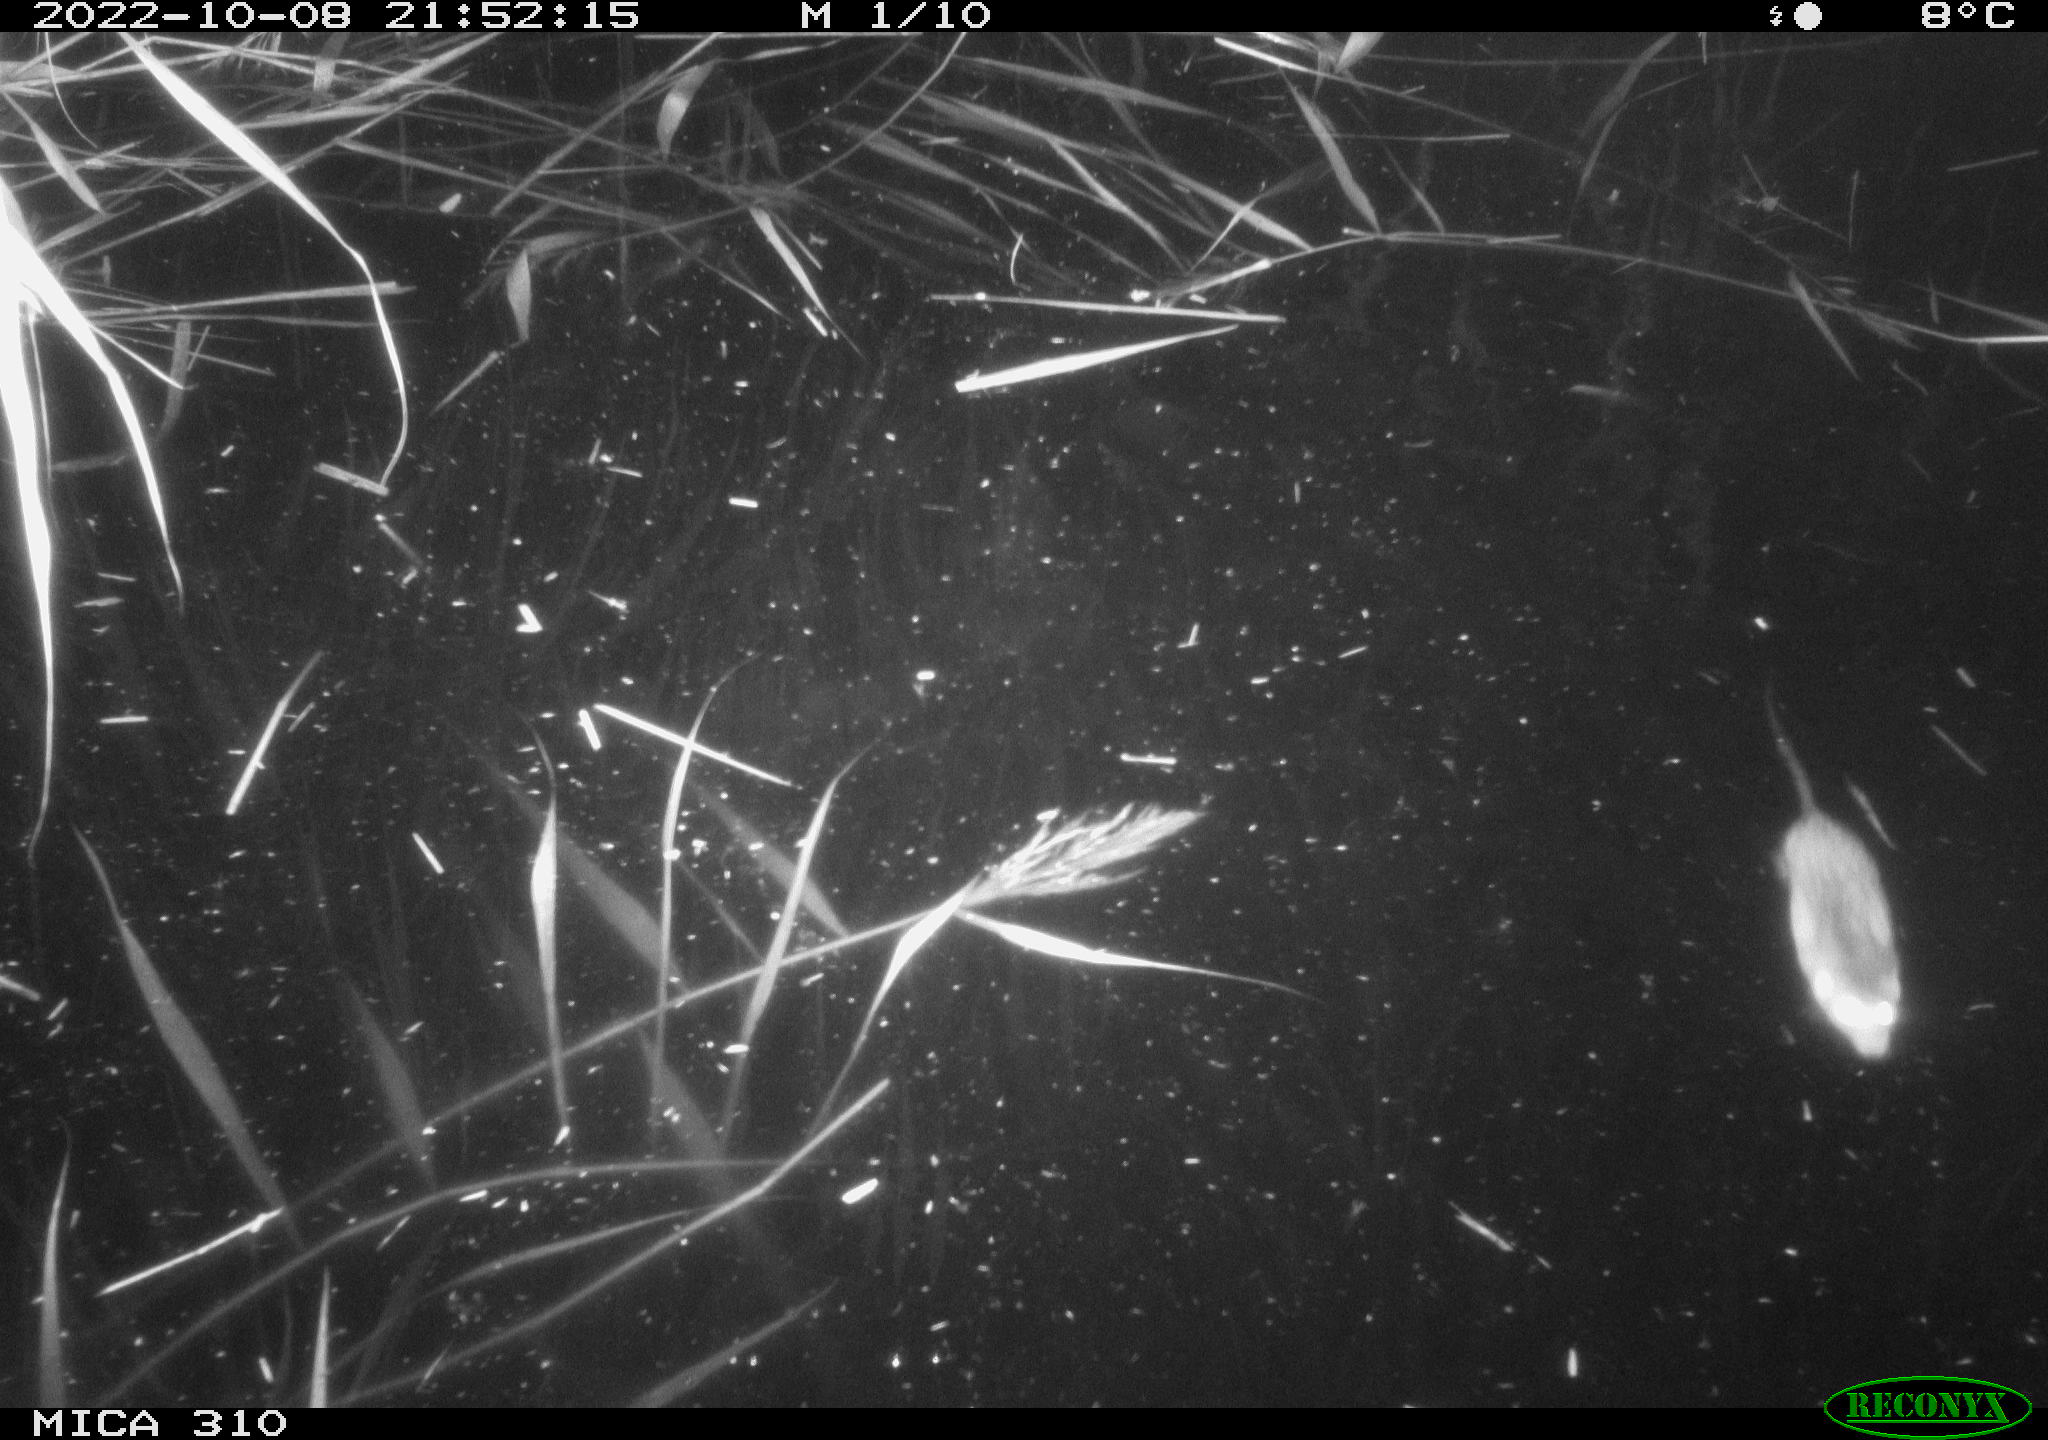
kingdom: Animalia
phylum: Chordata
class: Mammalia
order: Rodentia
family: Muridae
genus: Rattus
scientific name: Rattus norvegicus
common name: Brown rat
